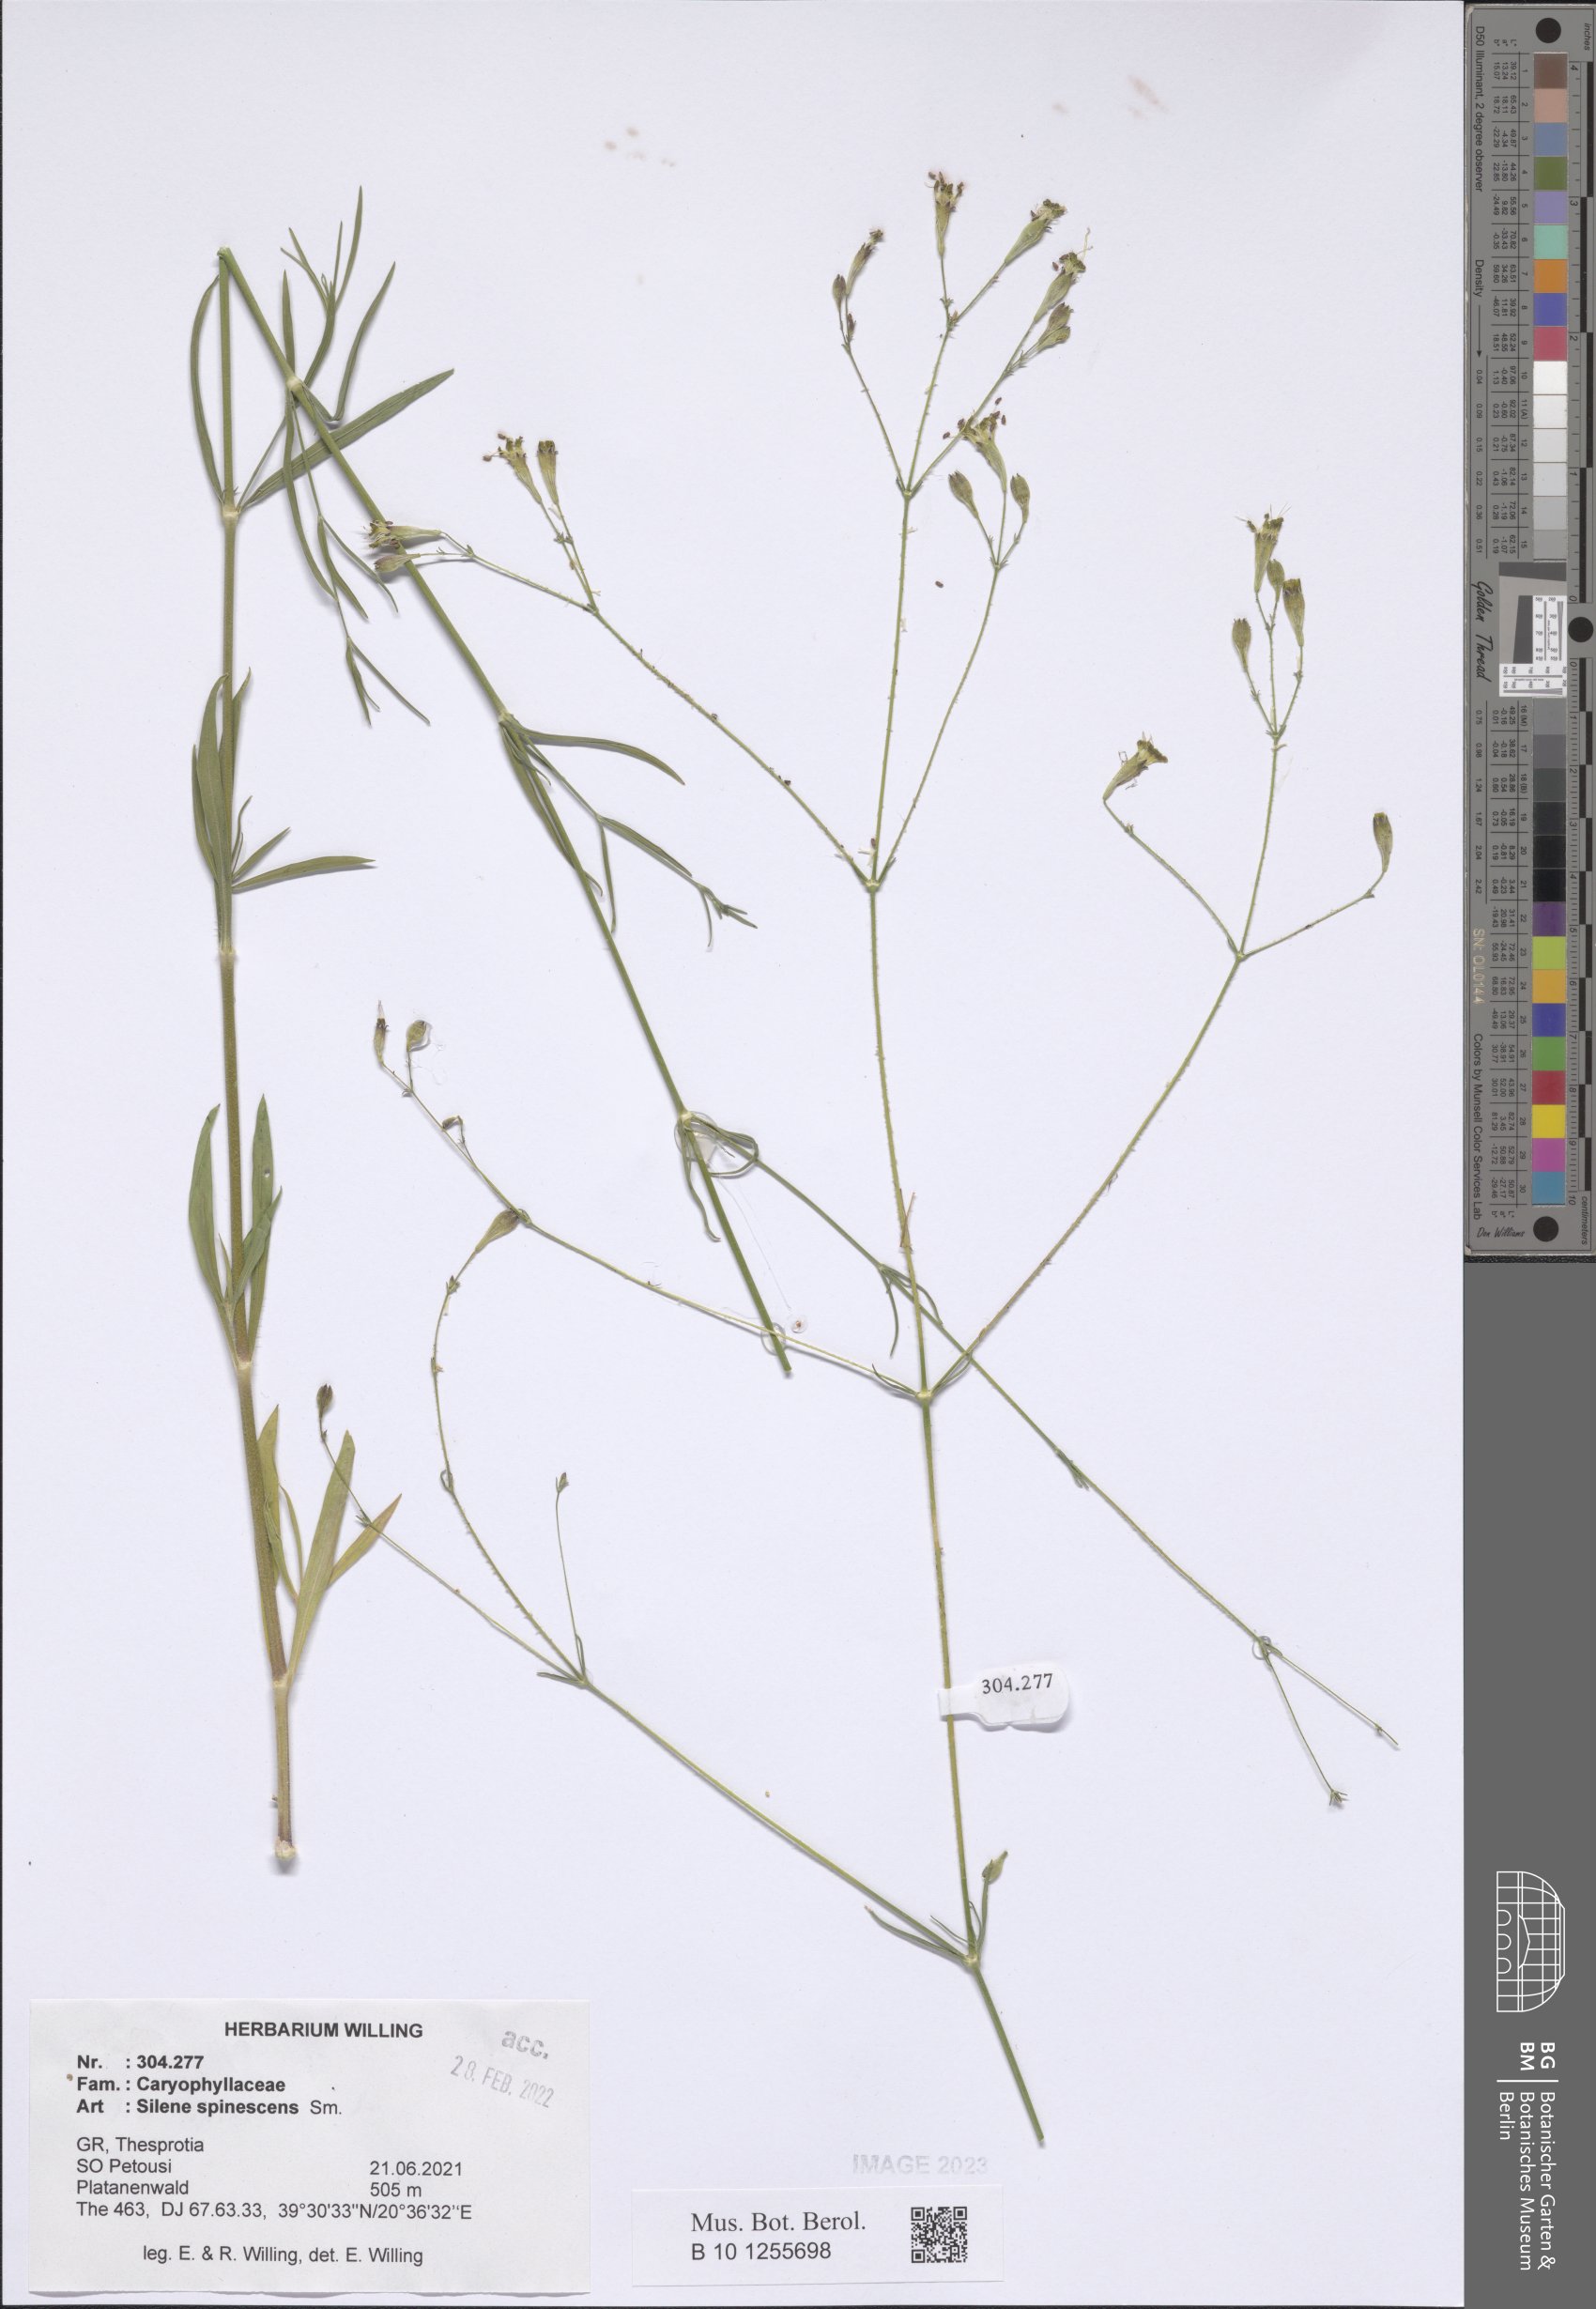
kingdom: Plantae
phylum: Tracheophyta
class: Magnoliopsida
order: Caryophyllales
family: Caryophyllaceae
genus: Silene
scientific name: Silene spinescens
